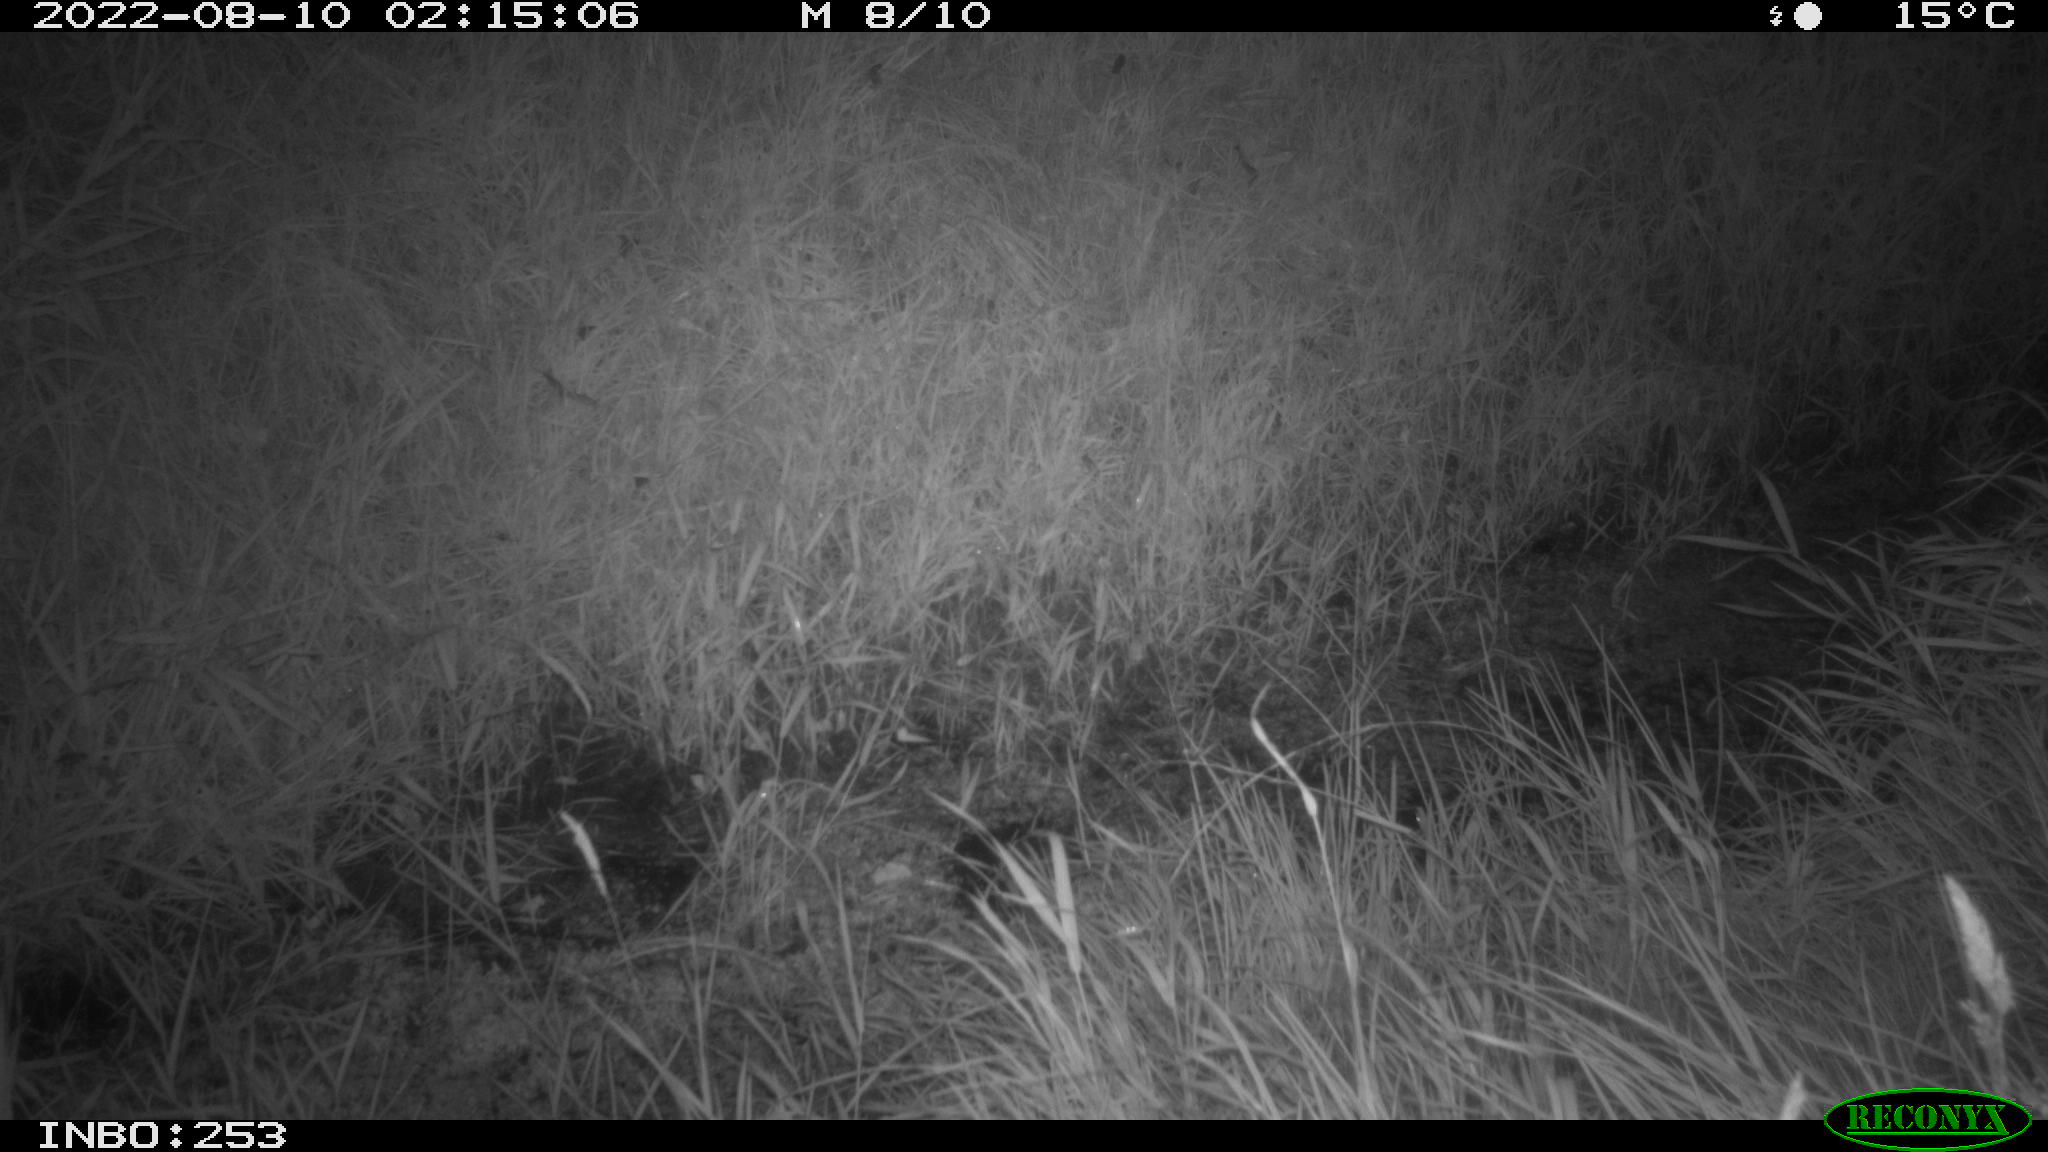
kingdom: Animalia
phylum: Chordata
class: Mammalia
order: Carnivora
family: Mustelidae
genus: Mustela
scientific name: Mustela putorius
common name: European polecat
